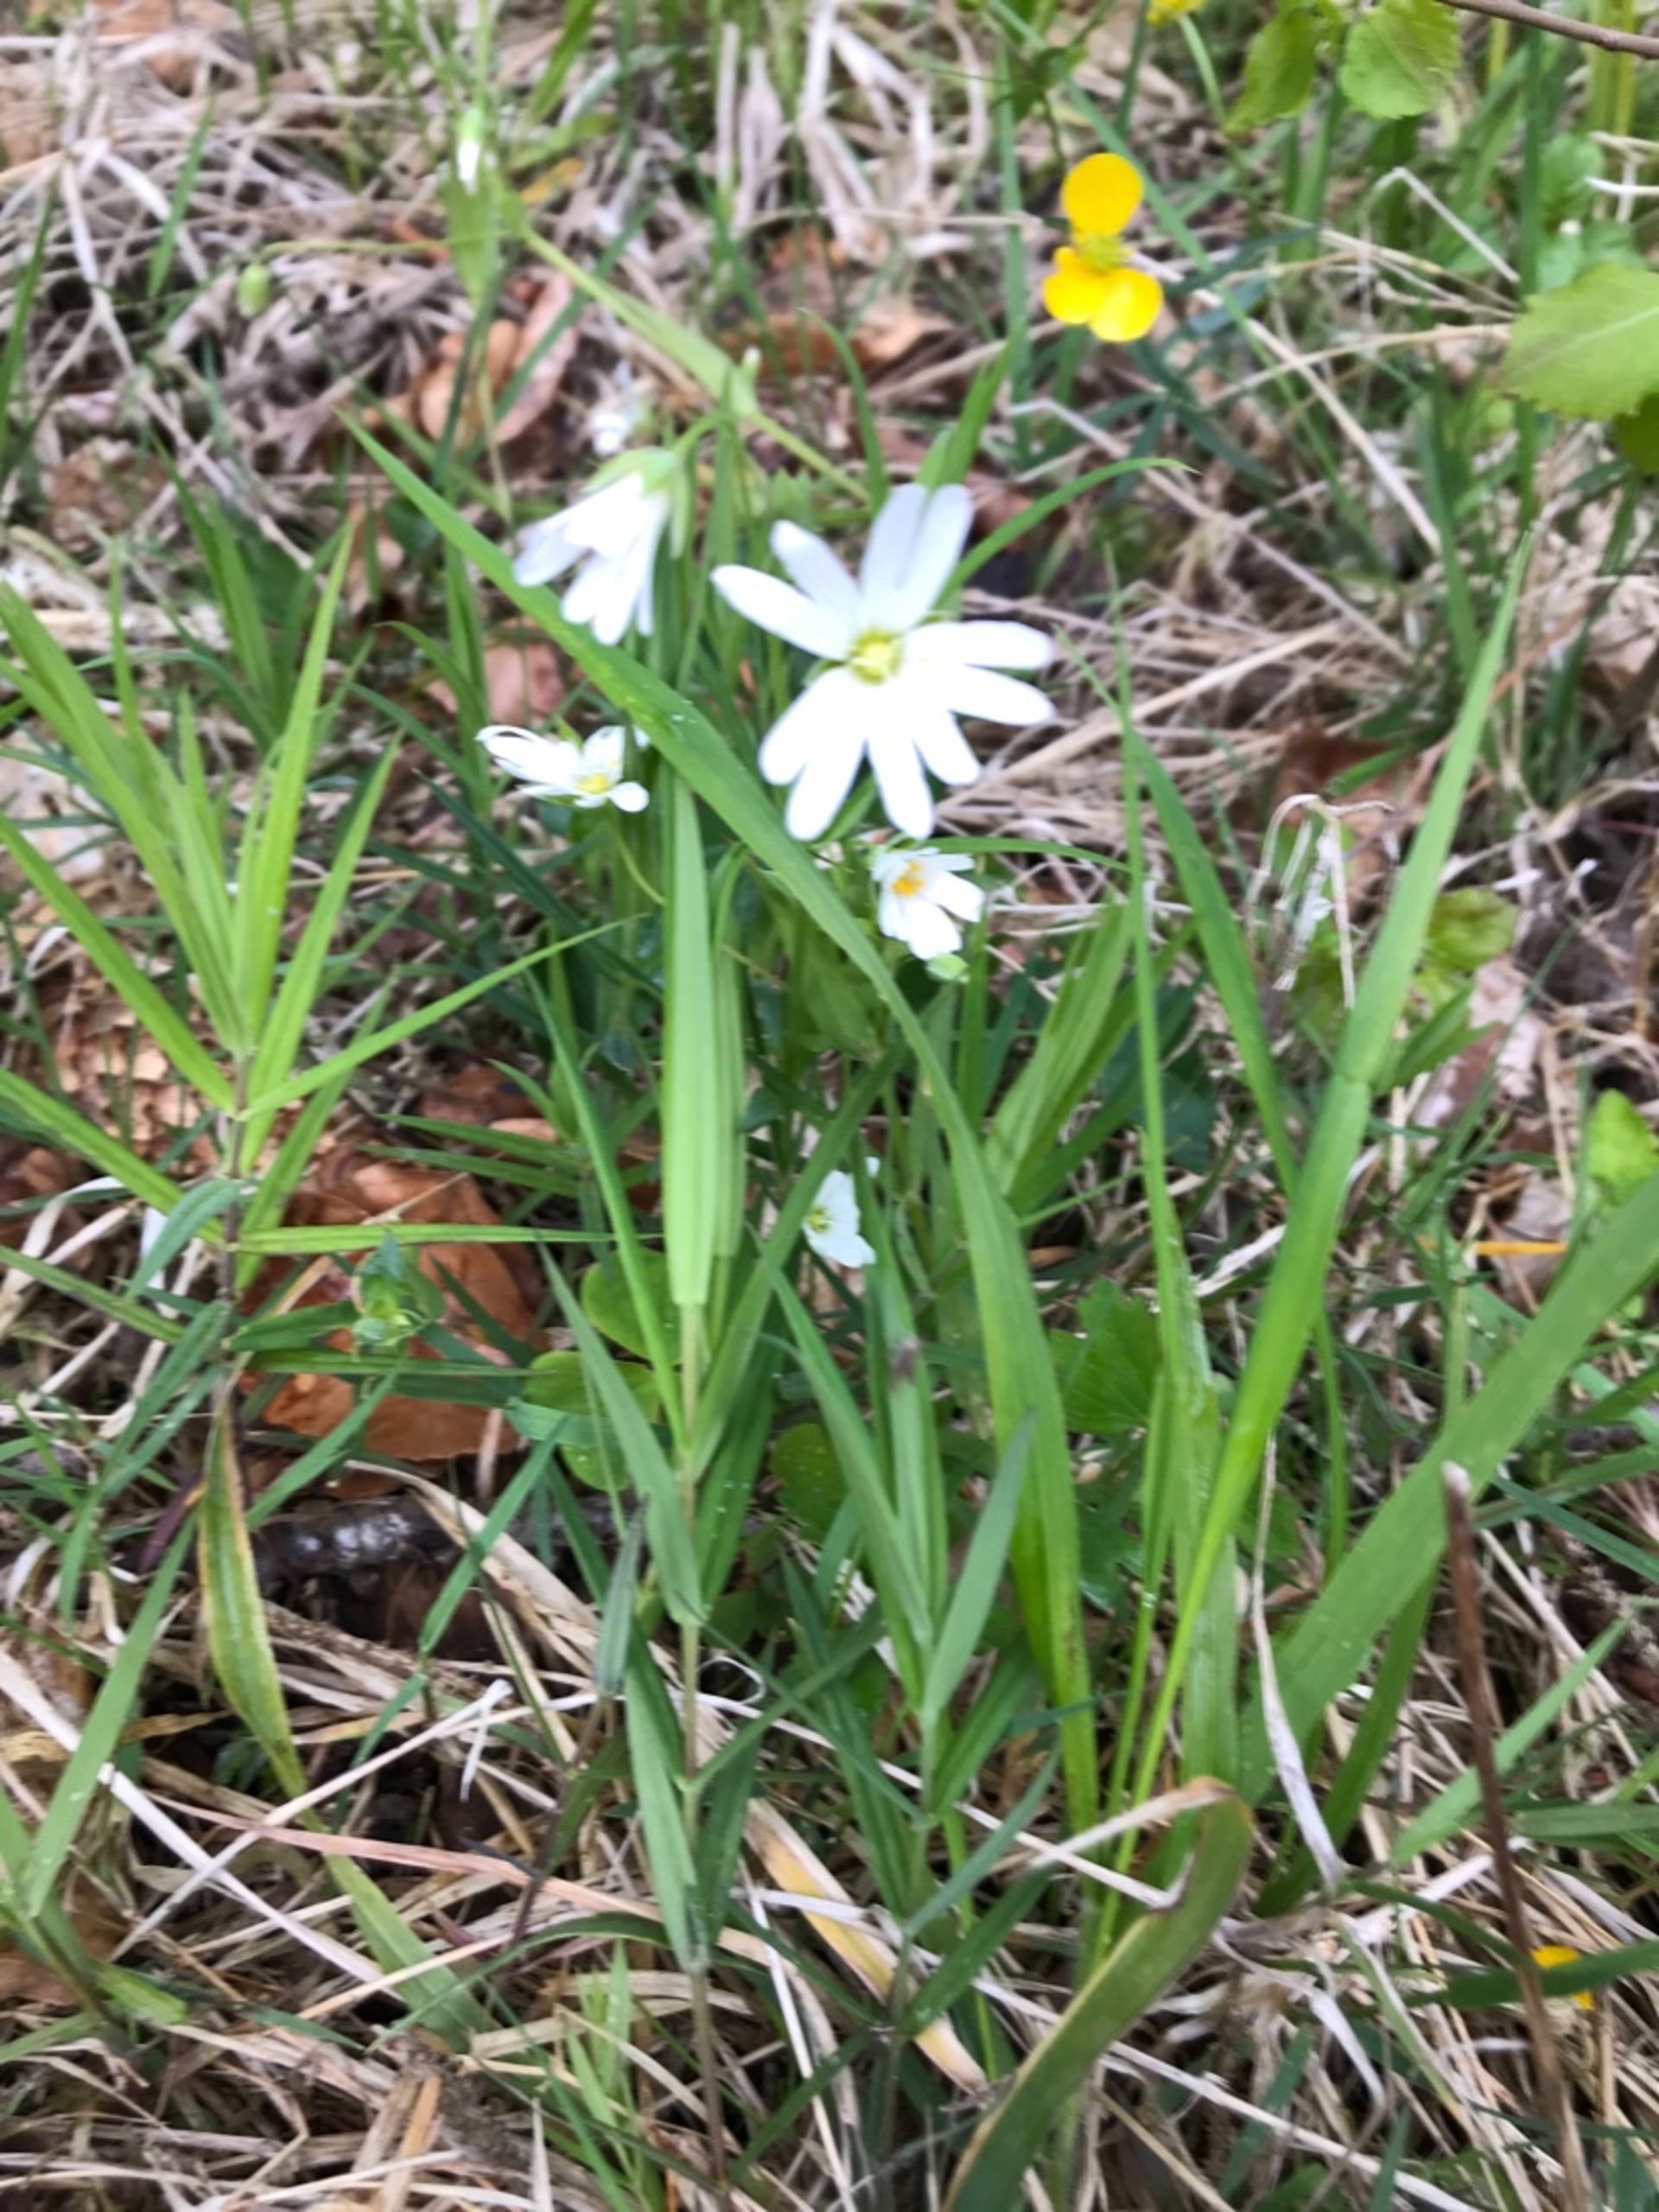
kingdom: Plantae
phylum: Tracheophyta
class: Magnoliopsida
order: Caryophyllales
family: Caryophyllaceae
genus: Rabelera
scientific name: Rabelera holostea
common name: Stor fladstjerne
